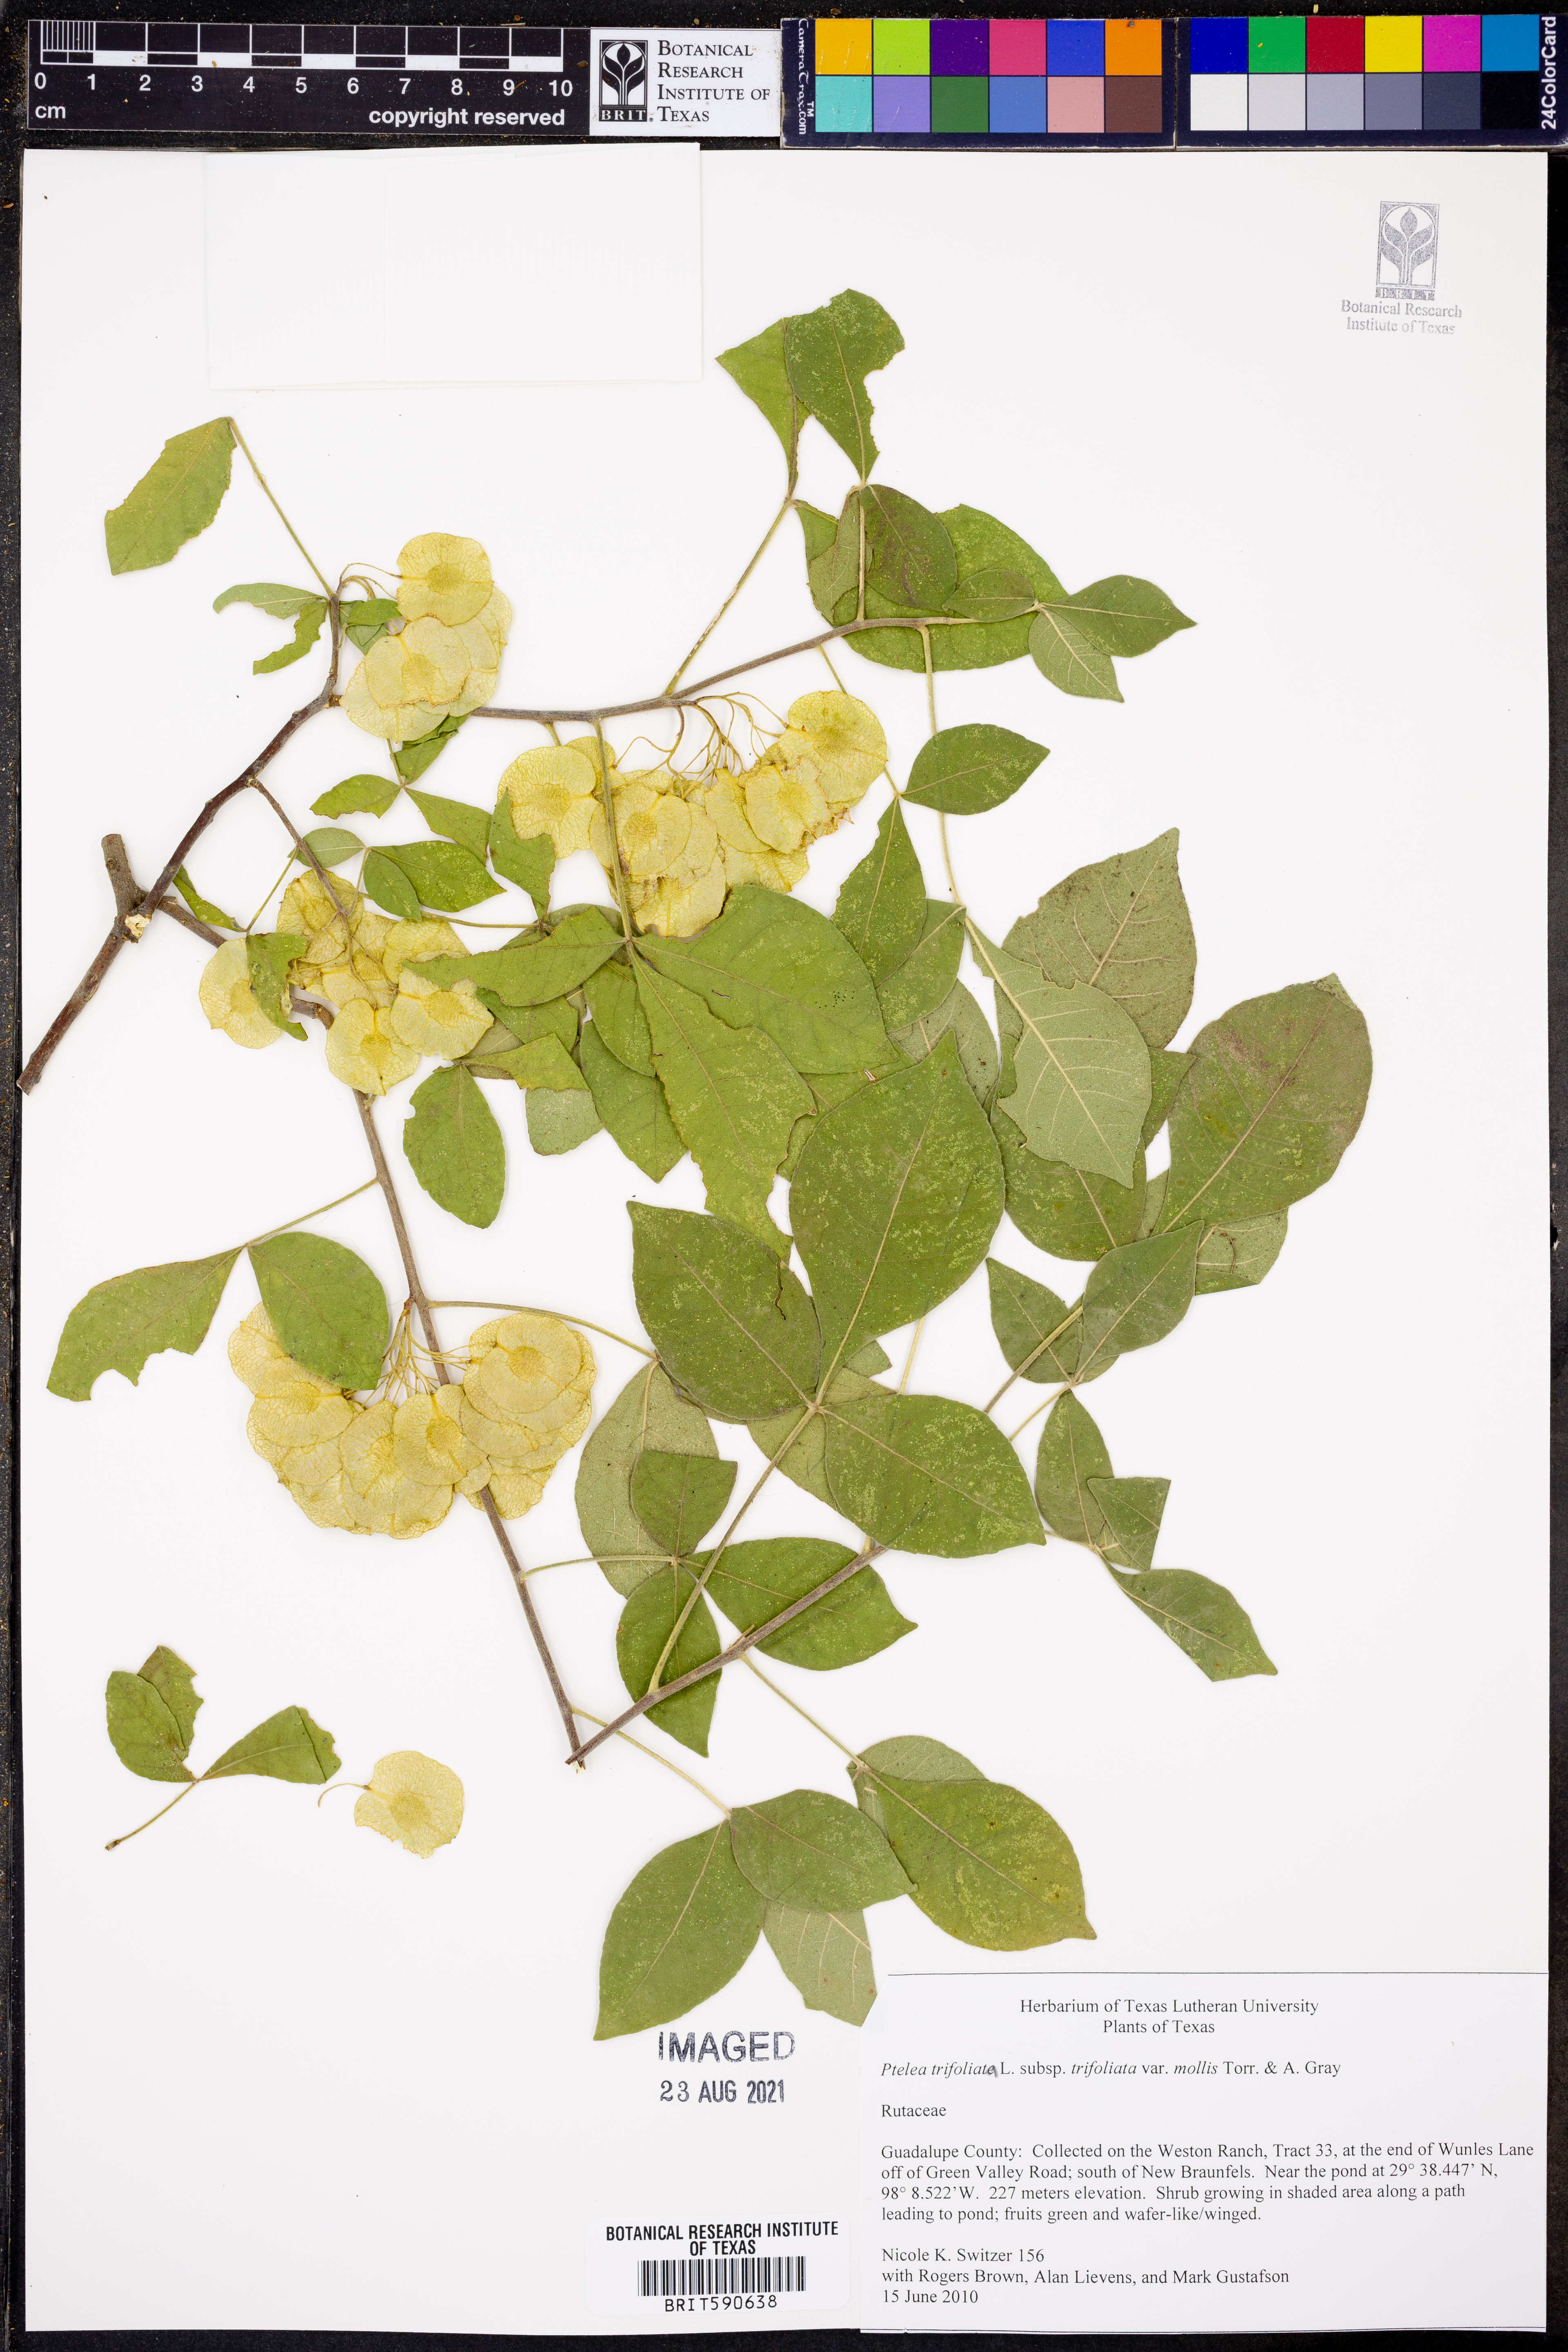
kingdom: Plantae
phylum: Tracheophyta
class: Magnoliopsida
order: Sapindales
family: Rutaceae
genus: Ptelea
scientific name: Ptelea trifoliata
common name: Common hop-tree
